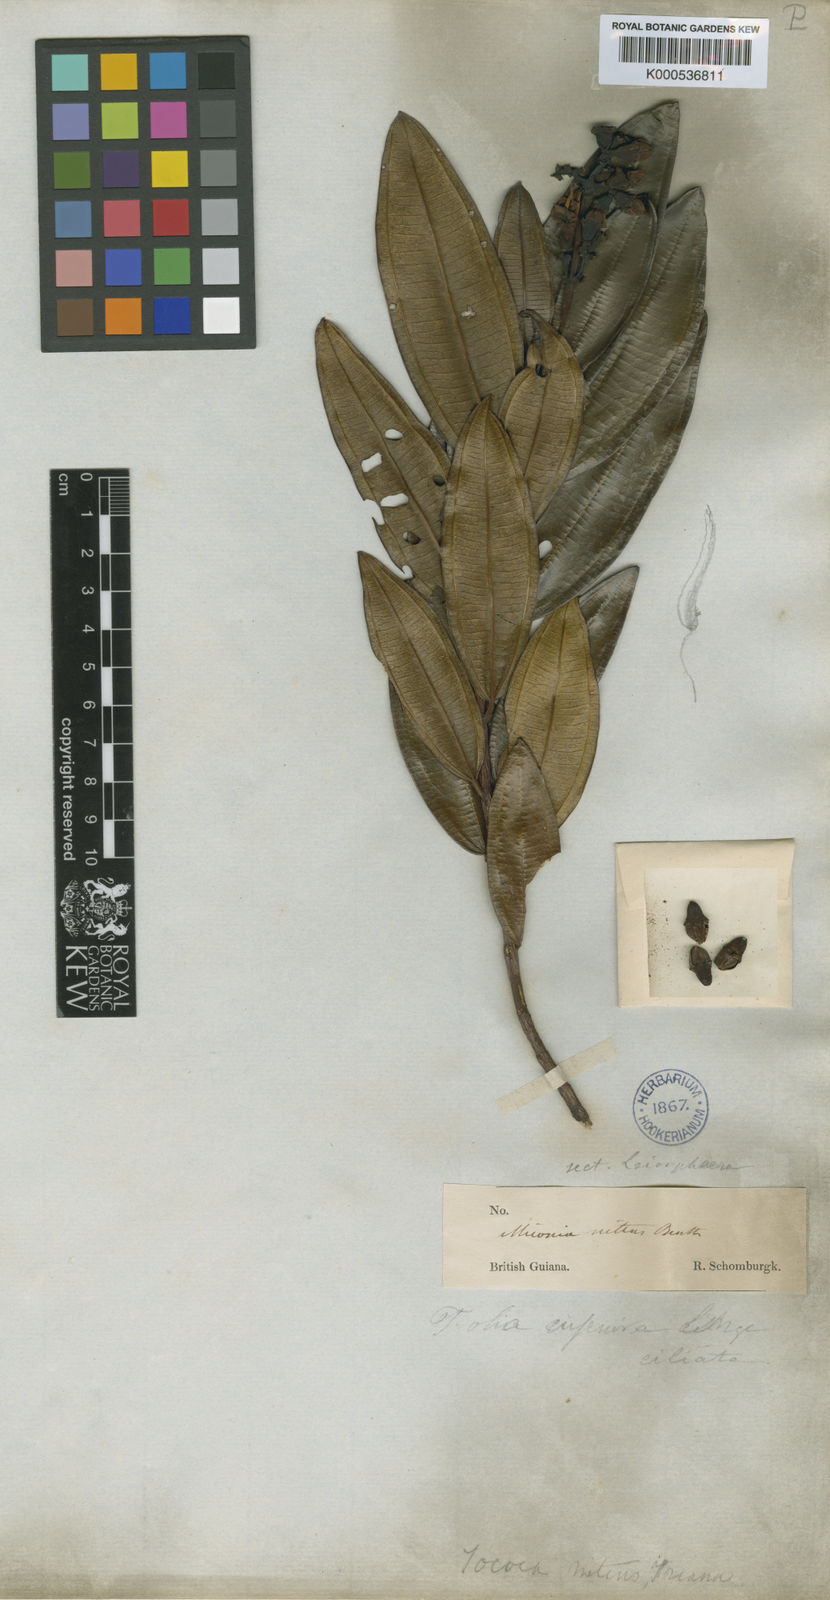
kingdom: Plantae
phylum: Tracheophyta
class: Magnoliopsida
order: Myrtales
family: Melastomataceae
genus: Miconia
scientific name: Miconia nitens
